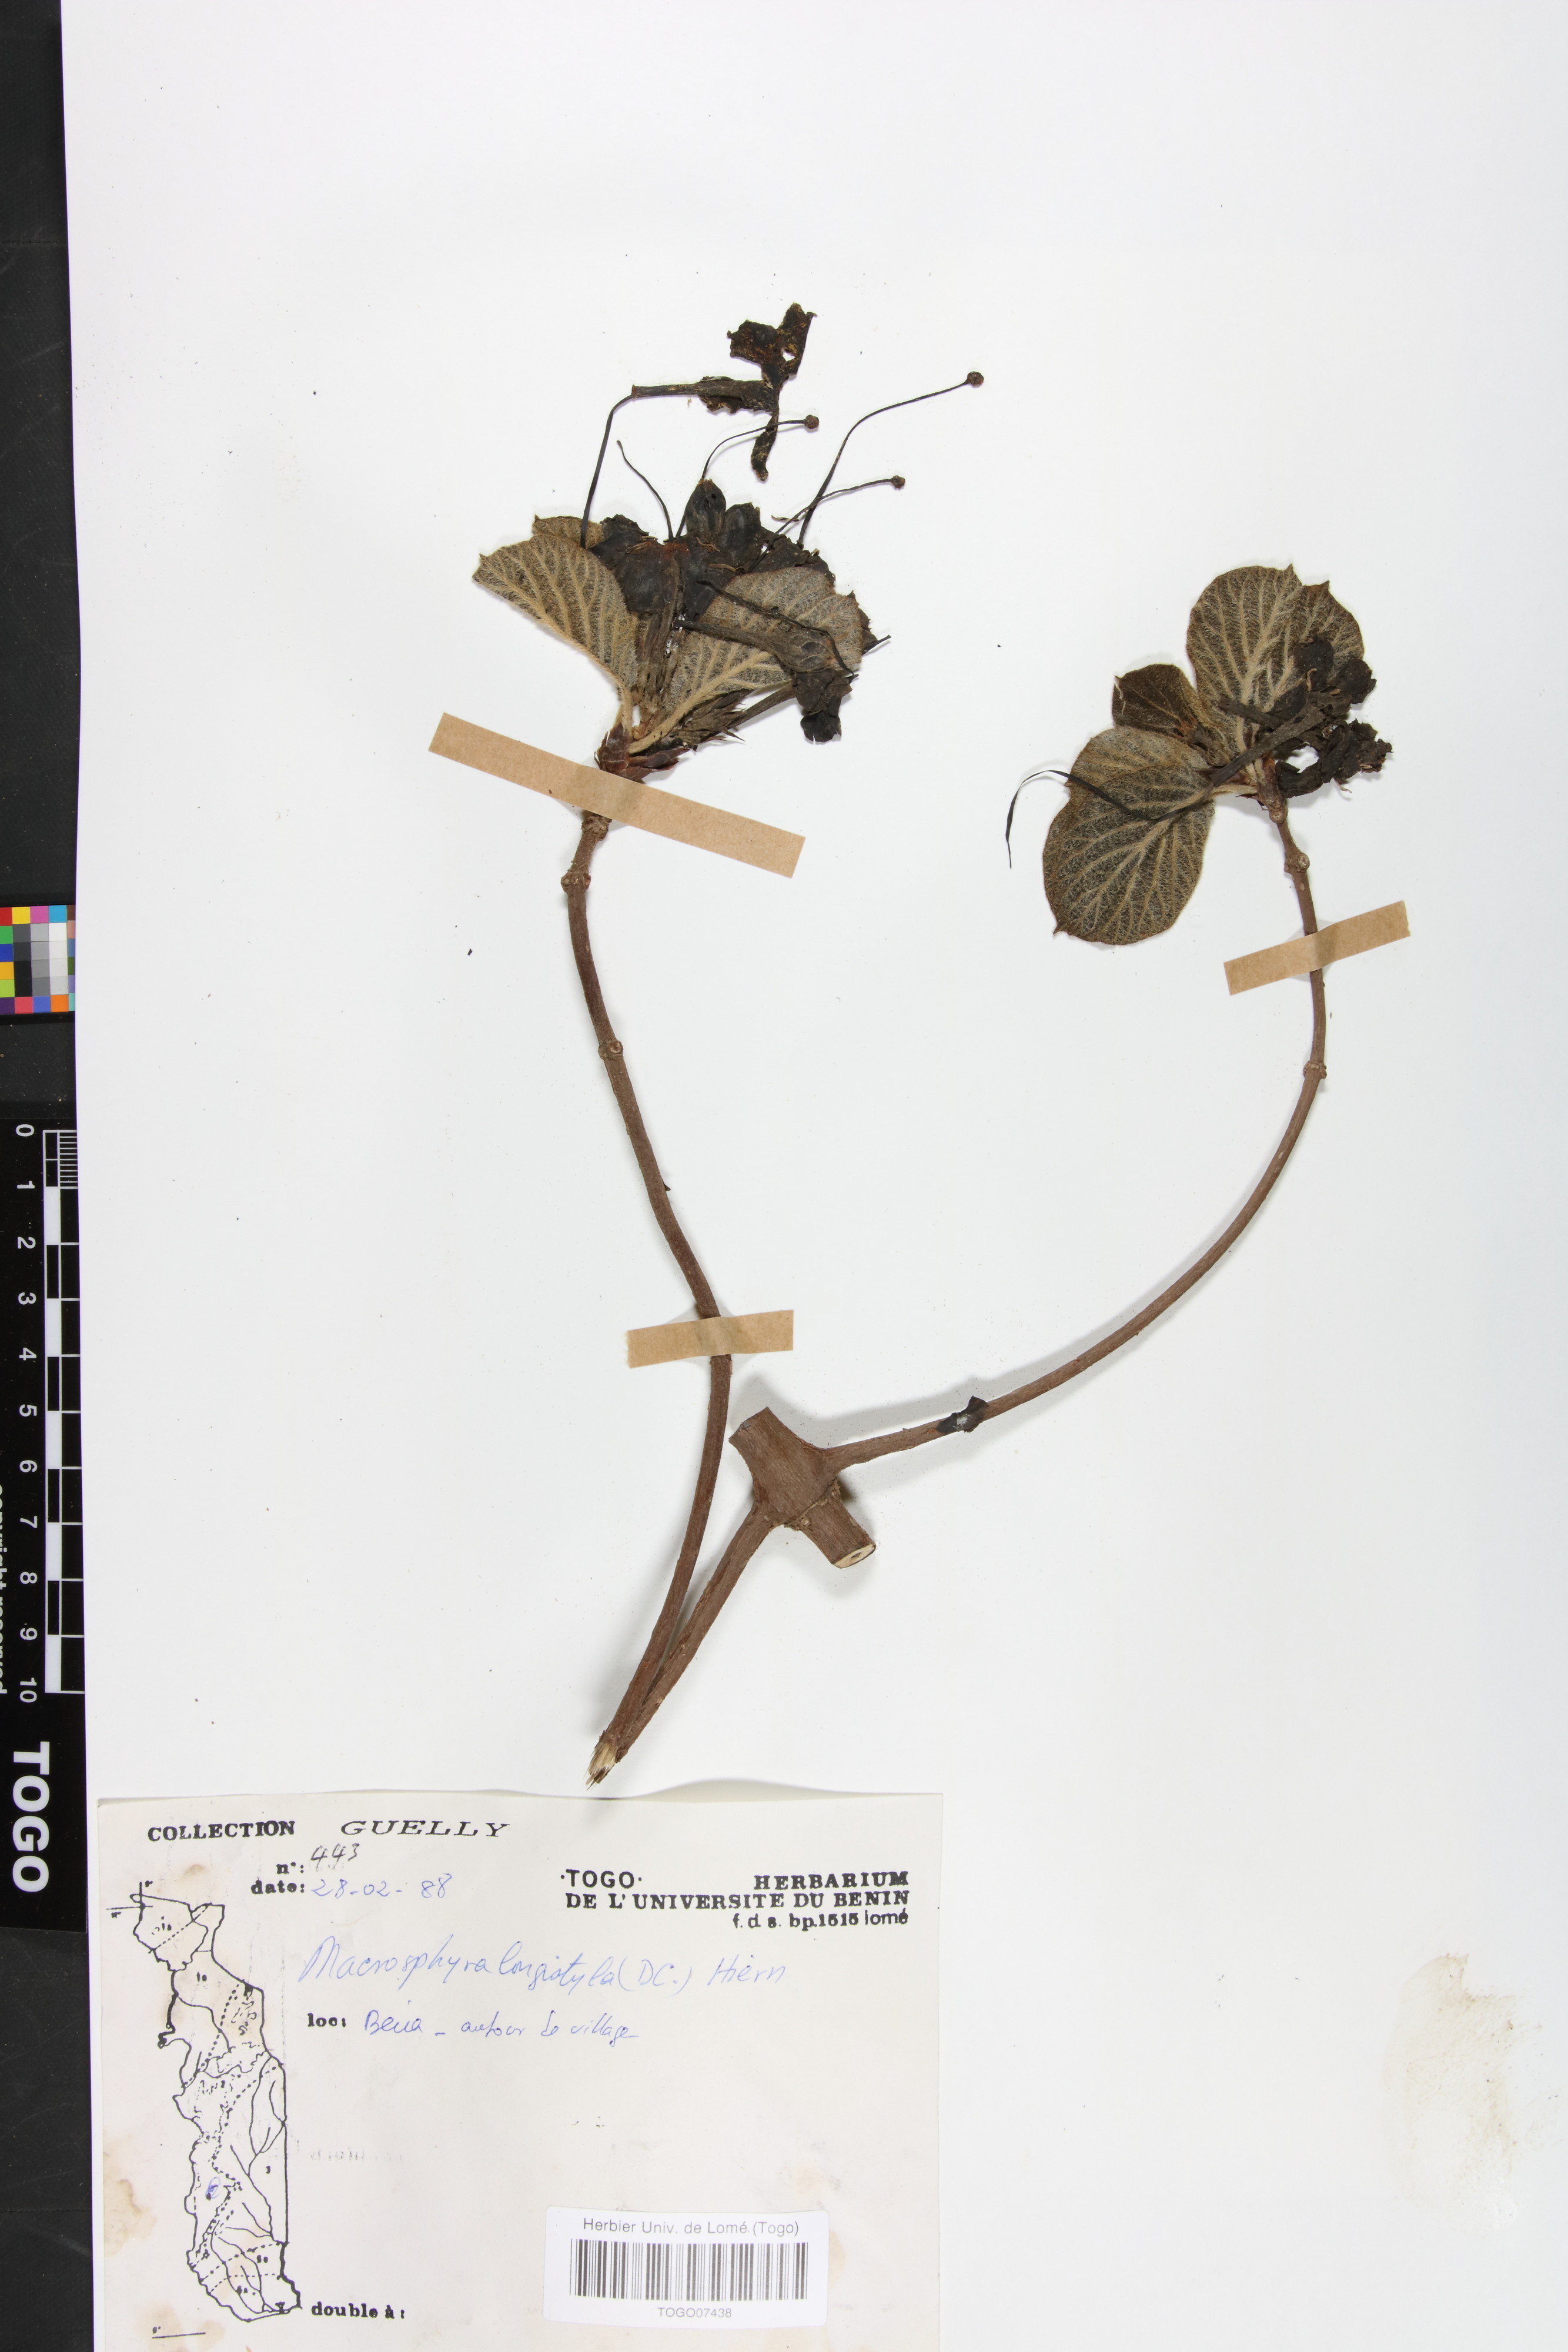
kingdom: Plantae
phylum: Tracheophyta
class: Magnoliopsida
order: Gentianales
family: Rubiaceae
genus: Macrosphyra
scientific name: Macrosphyra longistyla
